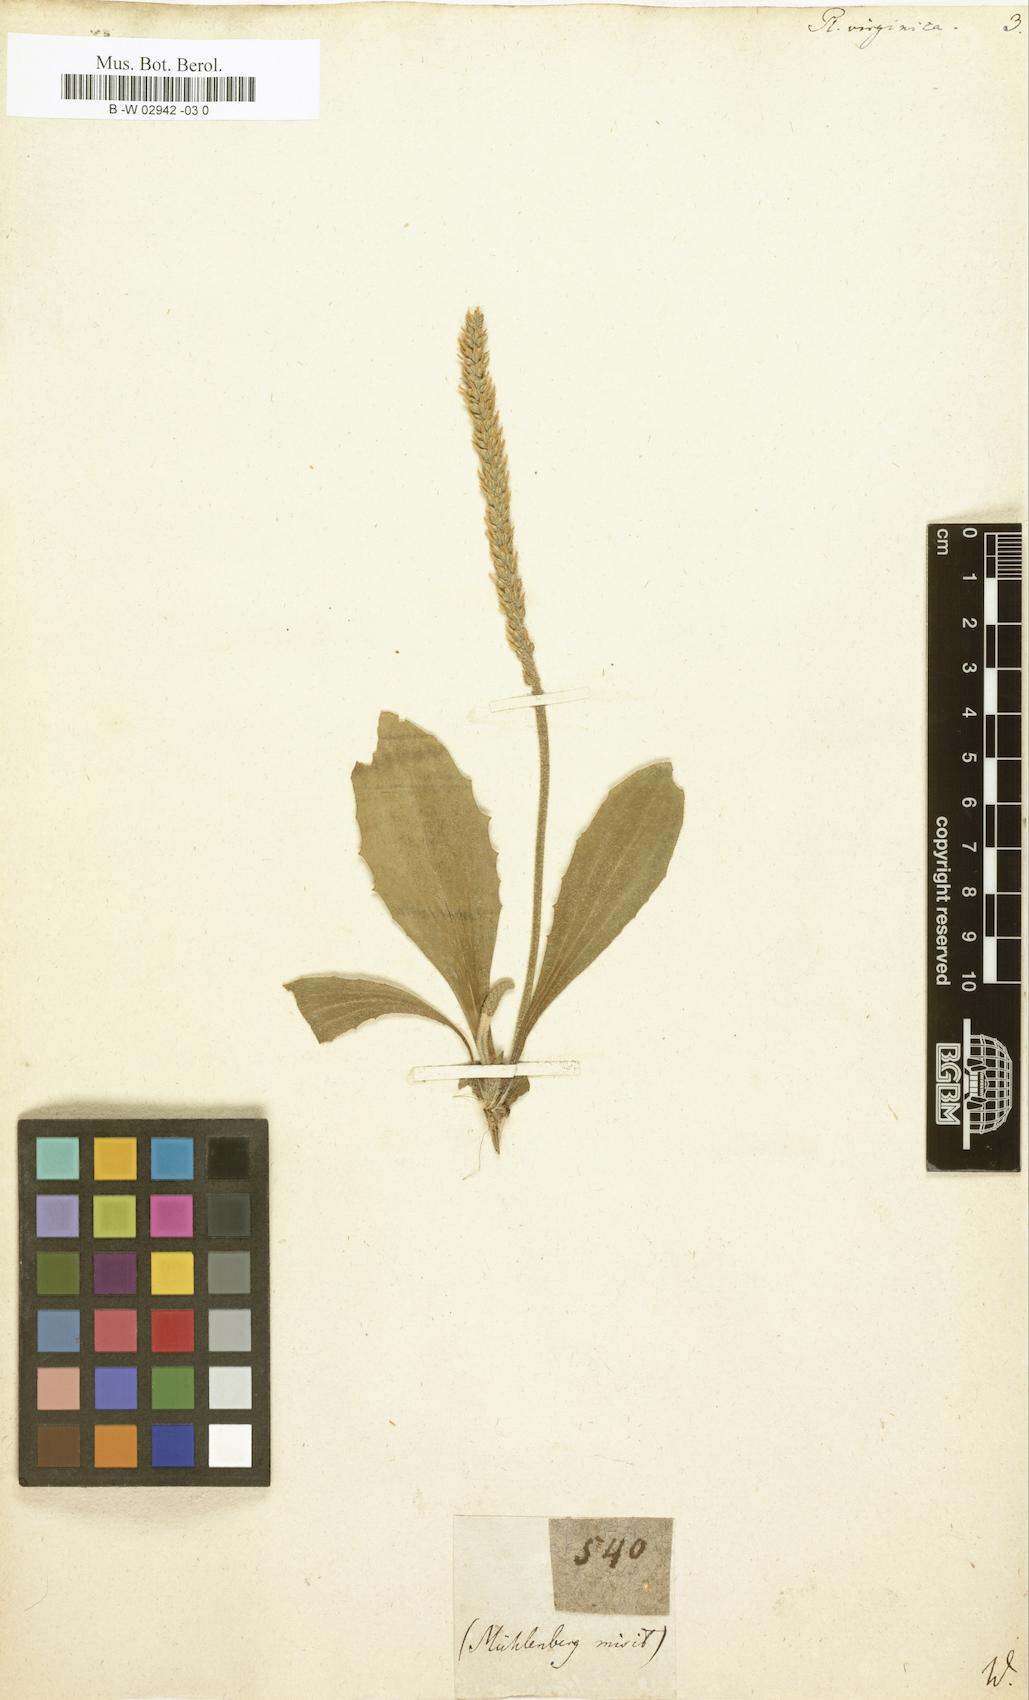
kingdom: Plantae
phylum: Tracheophyta
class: Magnoliopsida
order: Lamiales
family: Plantaginaceae
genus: Plantago
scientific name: Plantago virginica
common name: Hoary plantain
